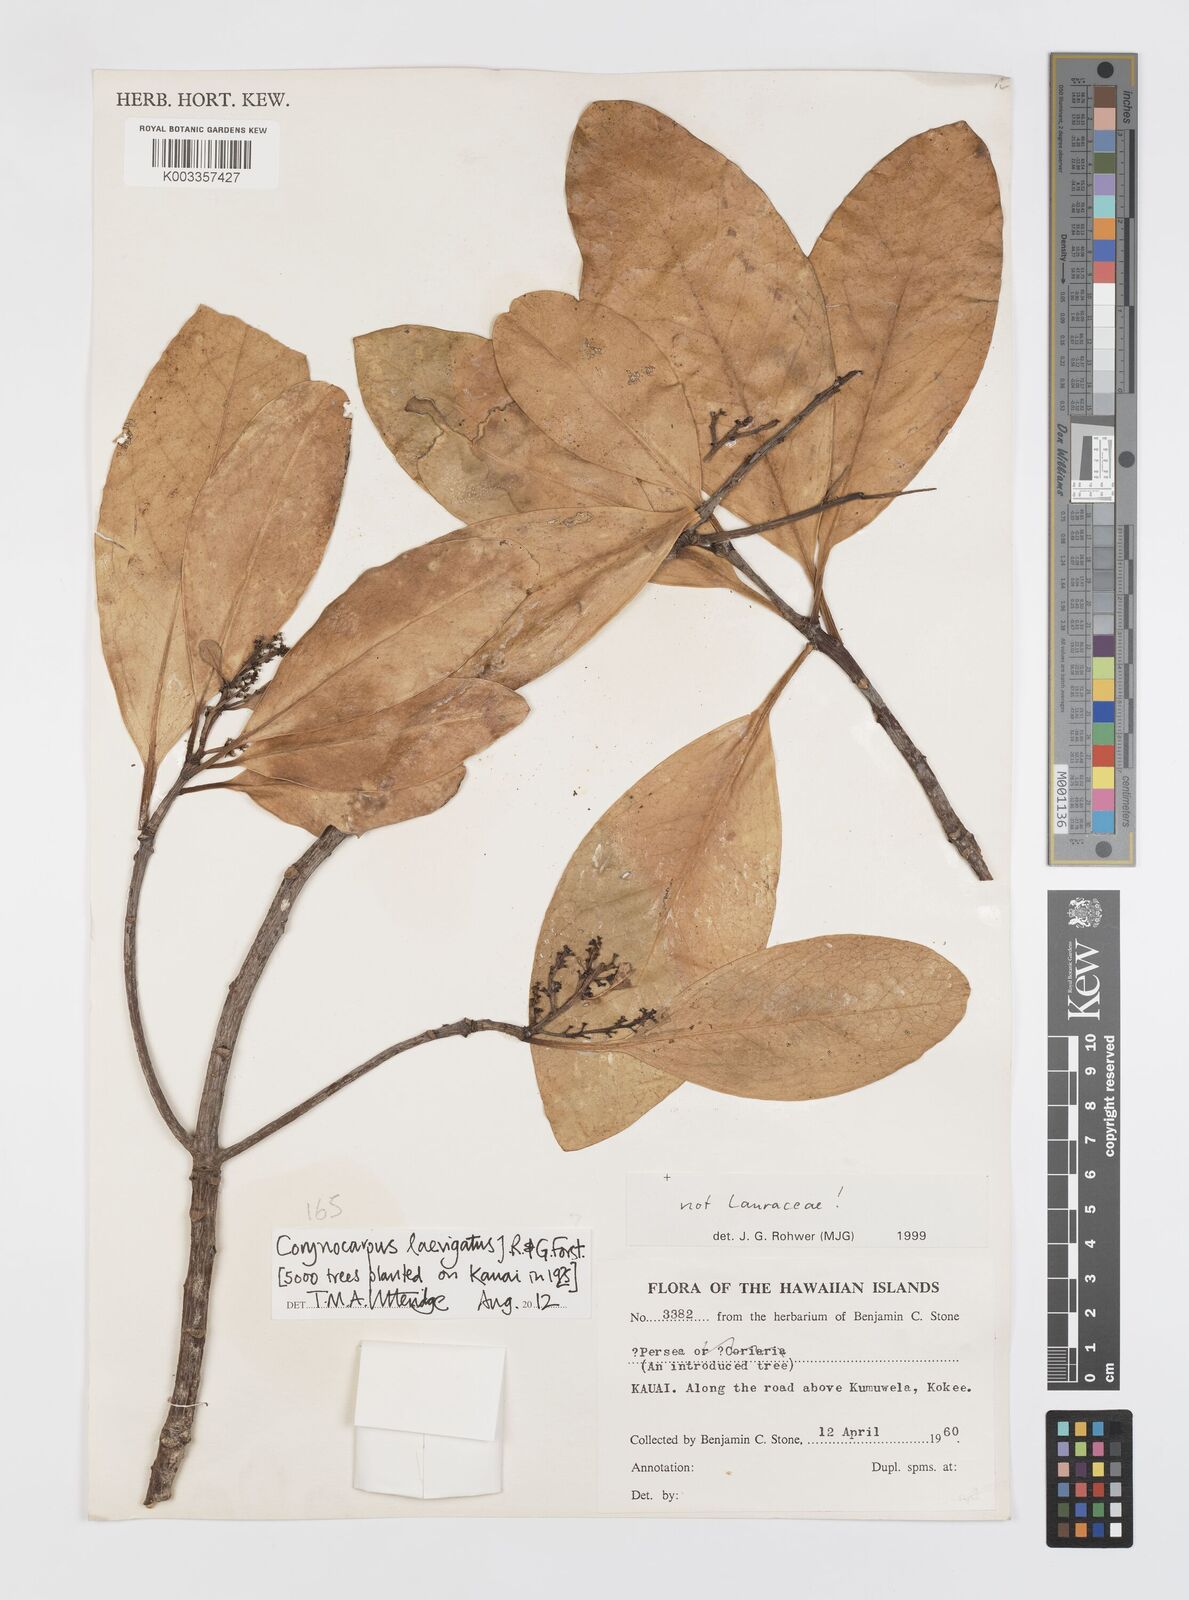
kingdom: Plantae
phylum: Tracheophyta
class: Magnoliopsida
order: Cucurbitales
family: Corynocarpaceae
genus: Corynocarpus
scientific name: Corynocarpus laevigatus
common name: New zealand laurel
